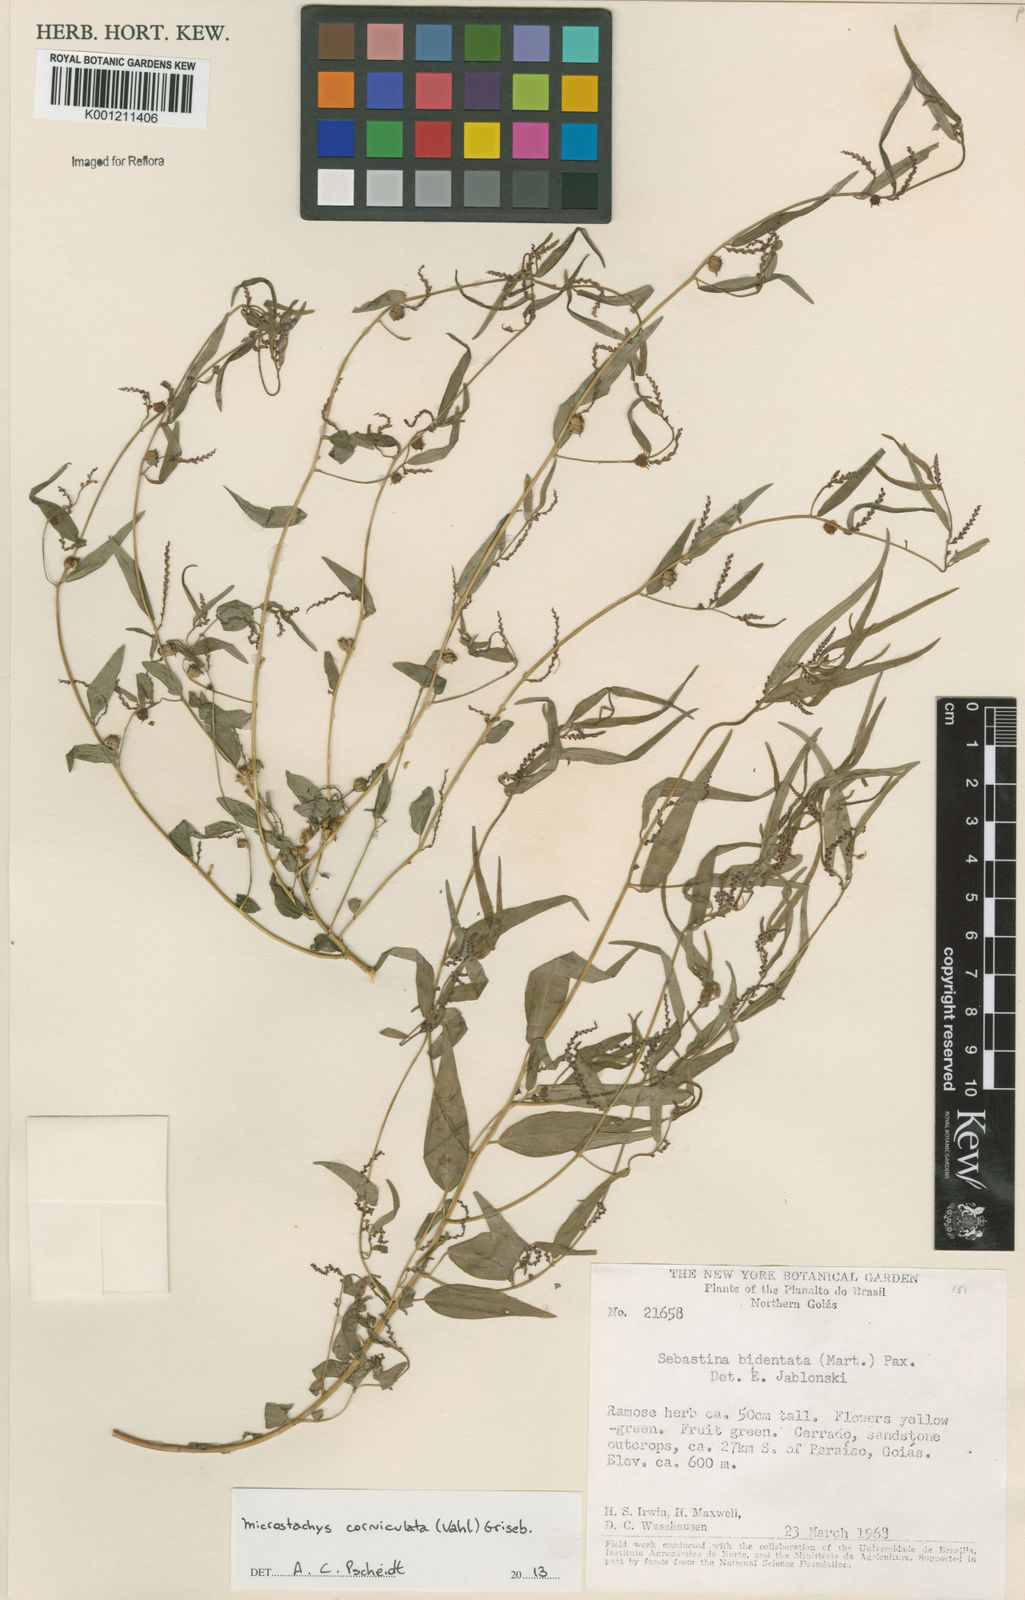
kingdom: Plantae
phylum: Tracheophyta
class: Magnoliopsida
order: Malpighiales
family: Euphorbiaceae
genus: Microstachys
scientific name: Microstachys corniculata
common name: Hato tejas
